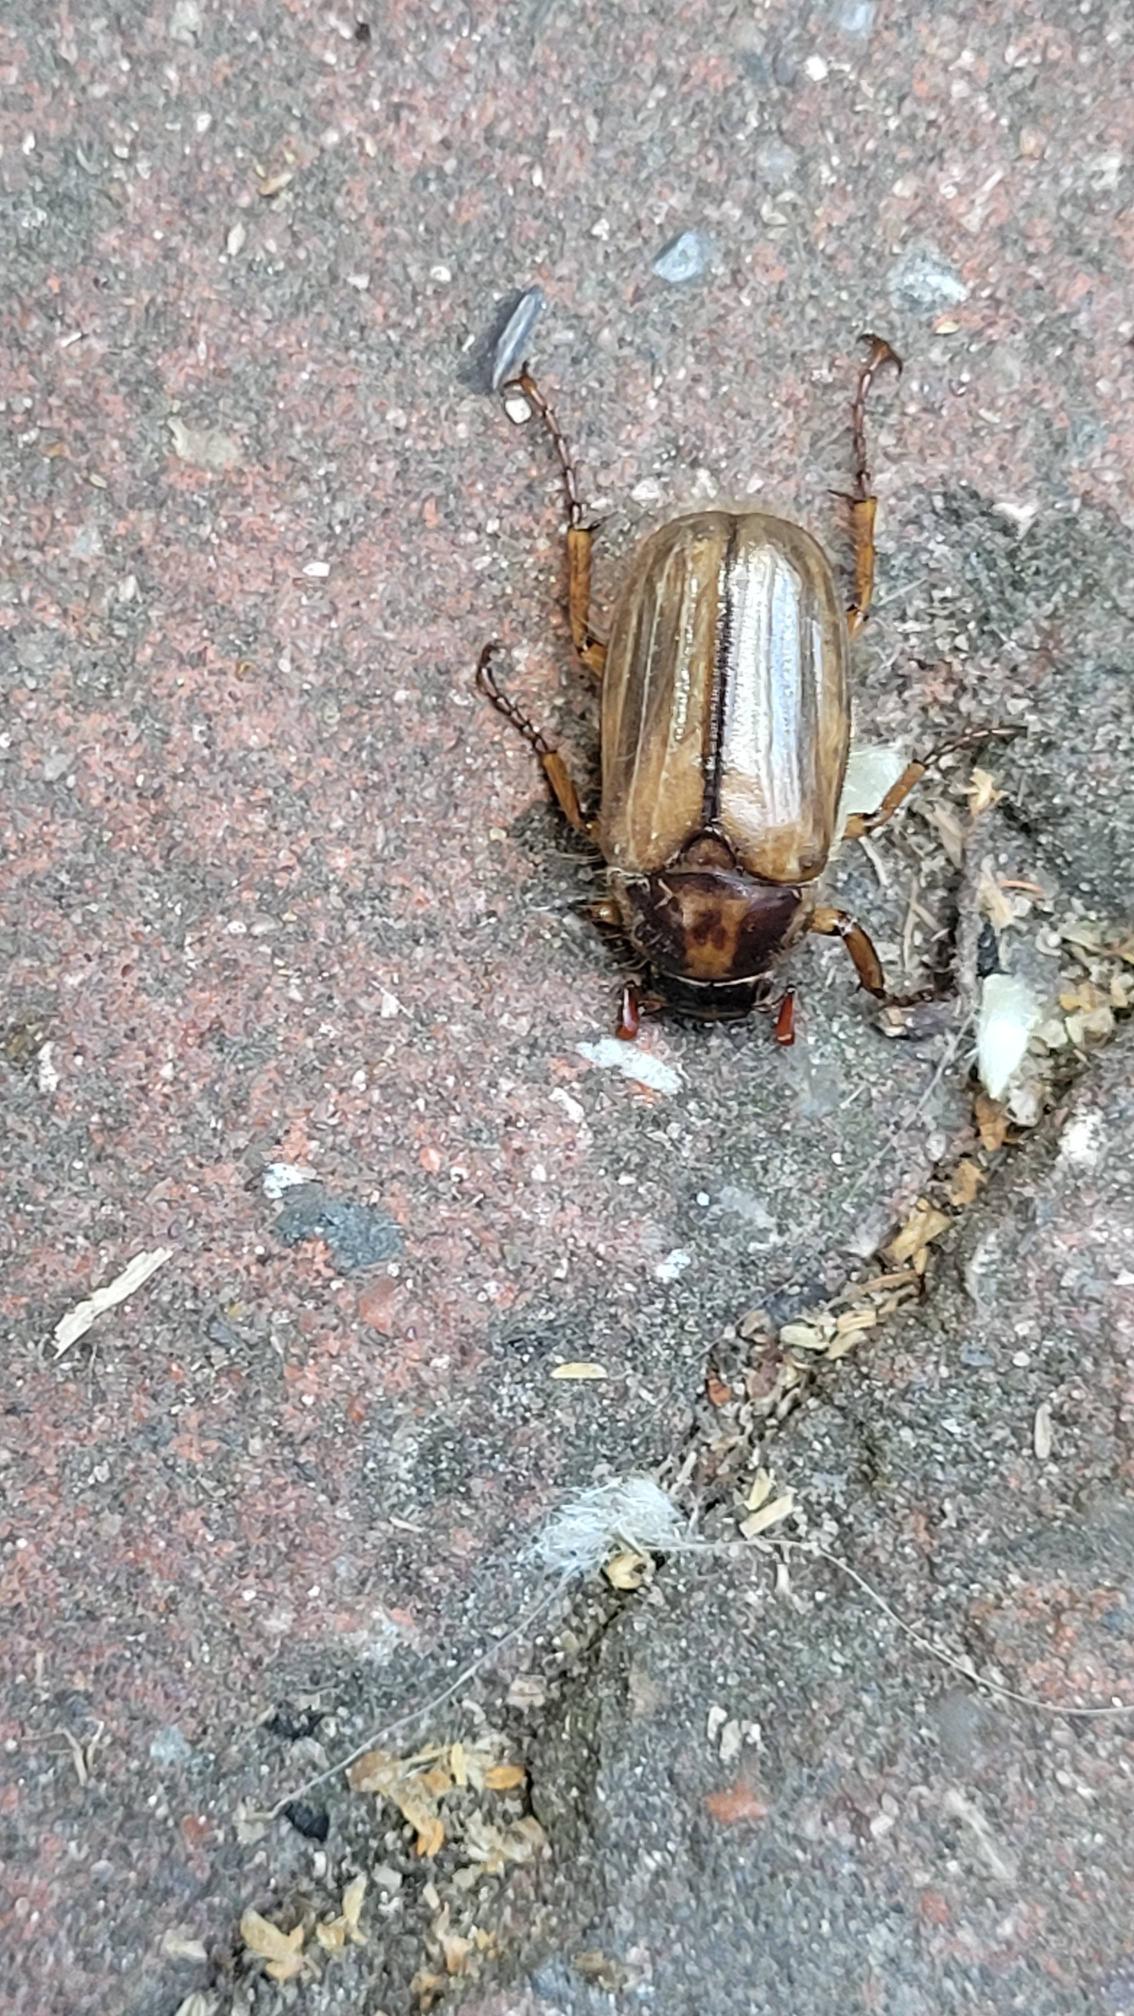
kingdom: Animalia
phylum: Arthropoda
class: Insecta
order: Coleoptera
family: Scarabaeidae
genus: Amphimallon
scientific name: Amphimallon solstitiale
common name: Sankthansoldenborre
